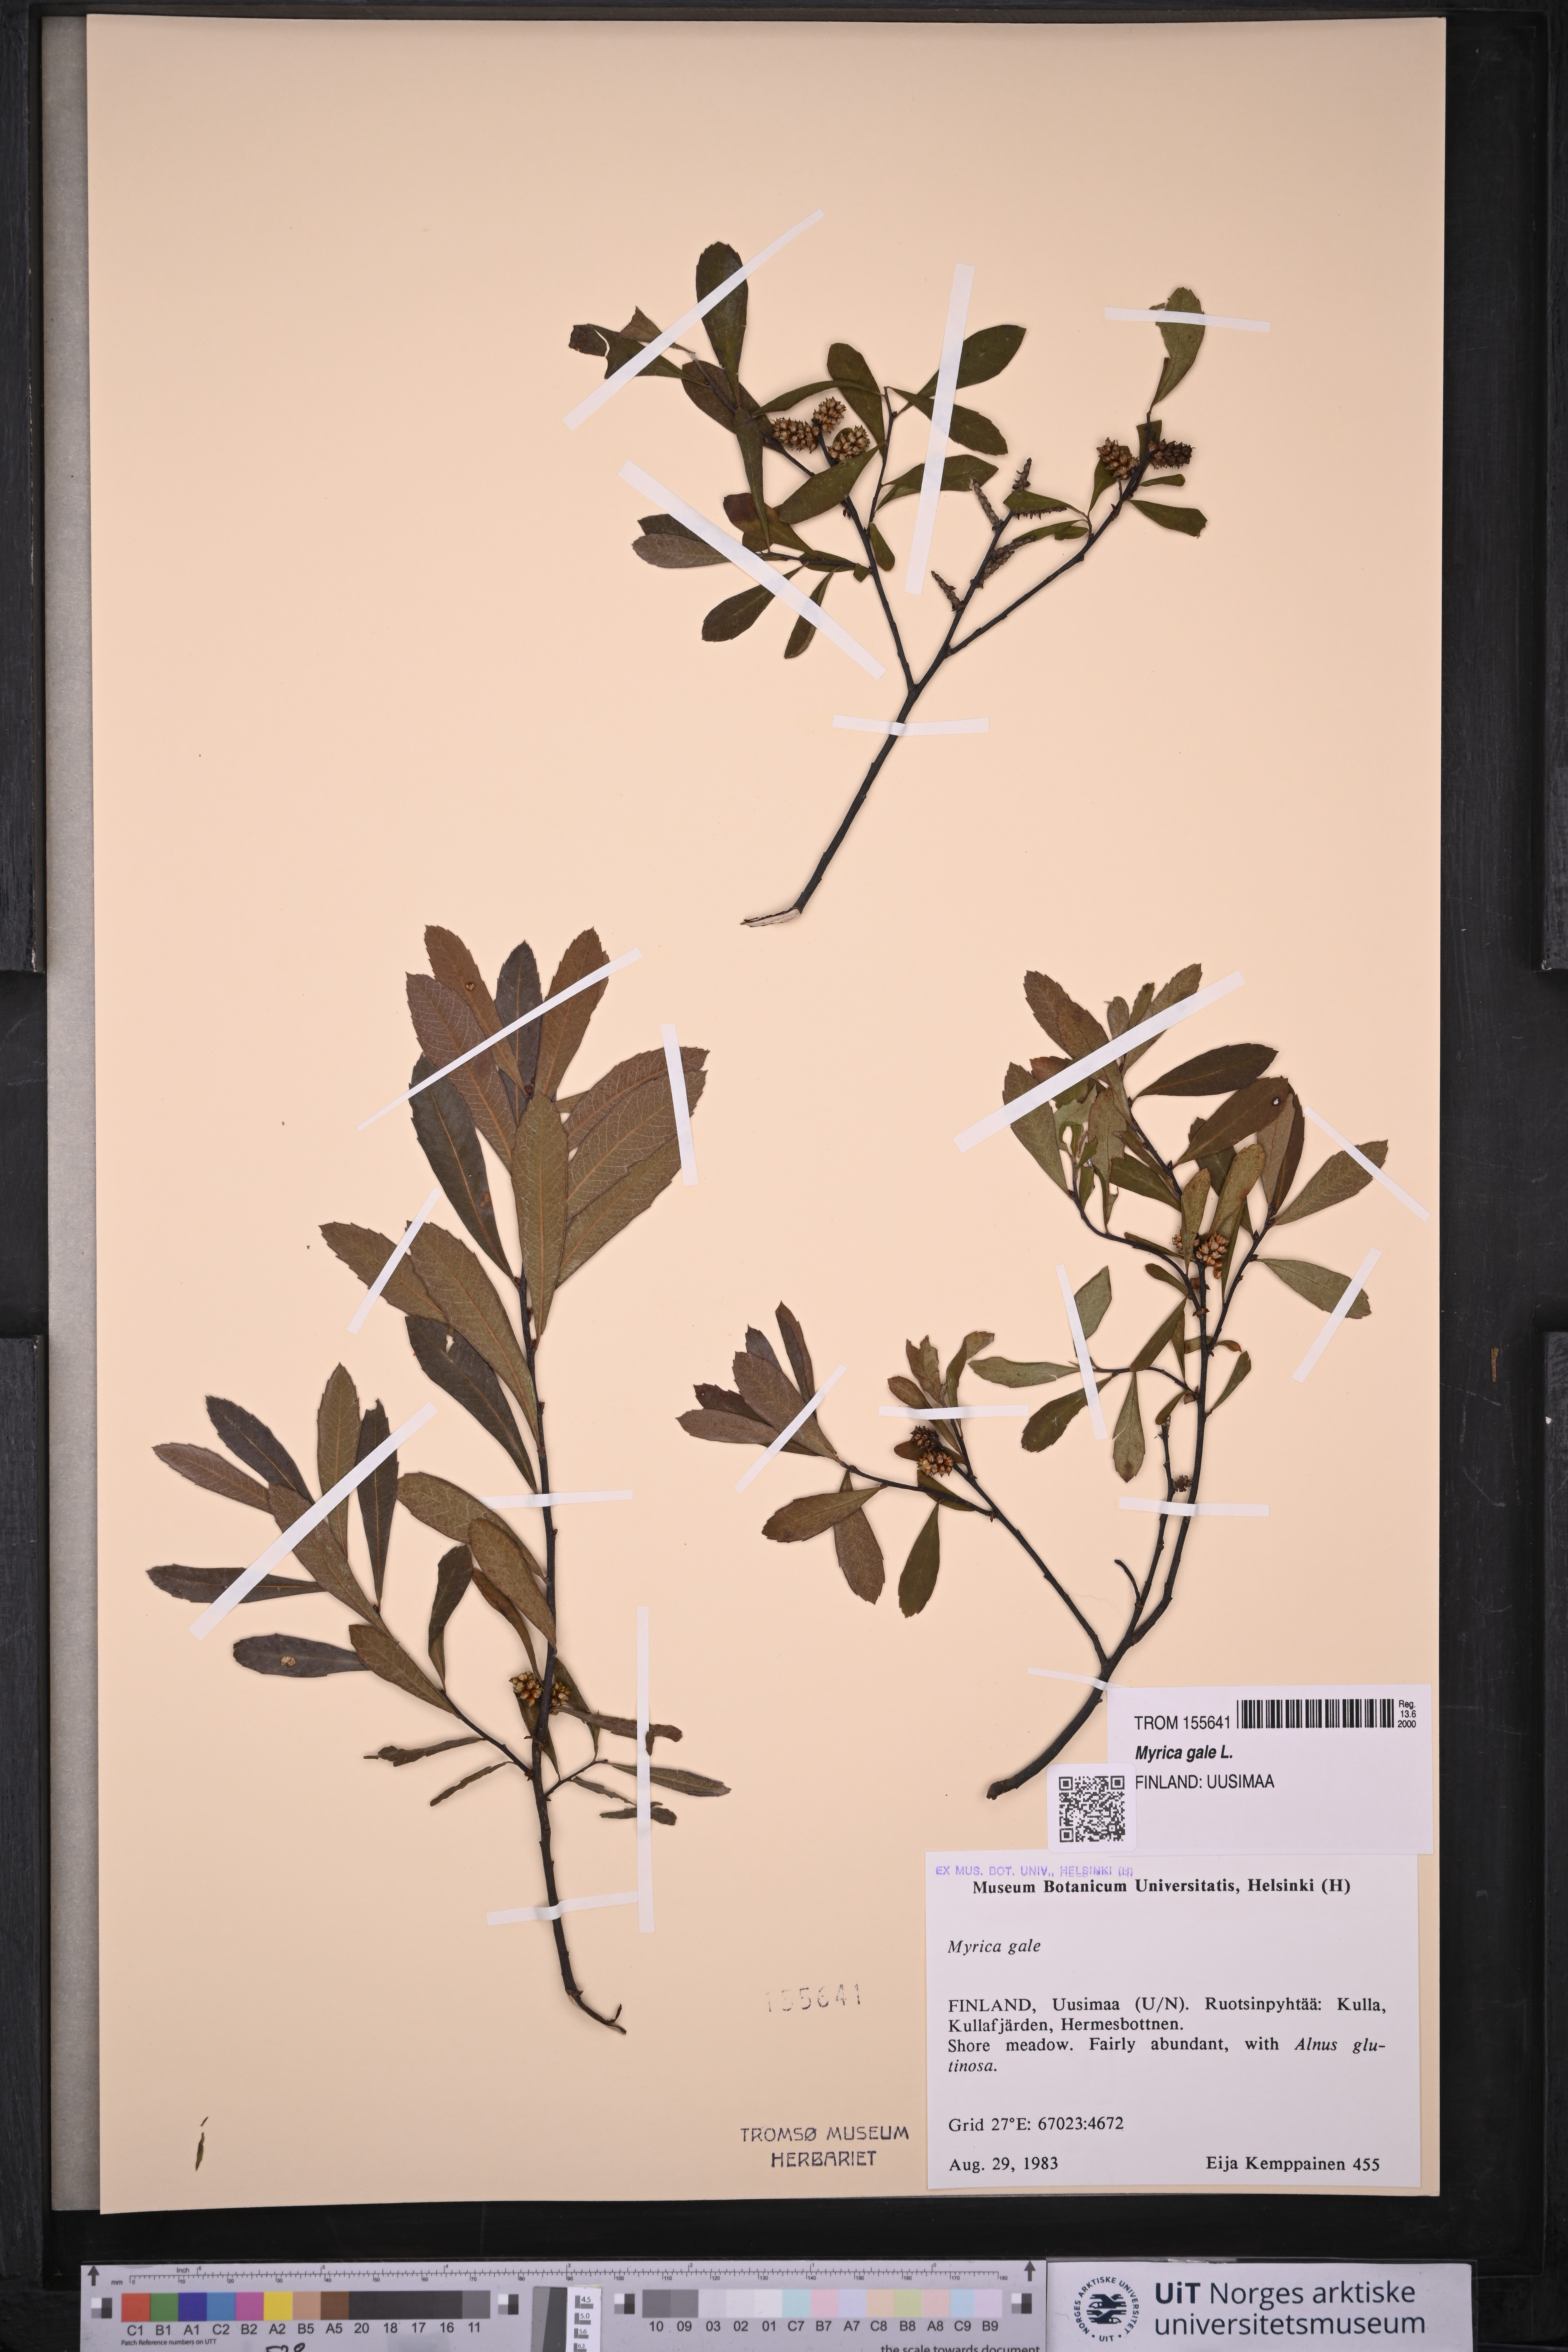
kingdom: Plantae
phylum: Tracheophyta
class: Magnoliopsida
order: Fagales
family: Myricaceae
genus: Myrica
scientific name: Myrica gale
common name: Sweet gale
